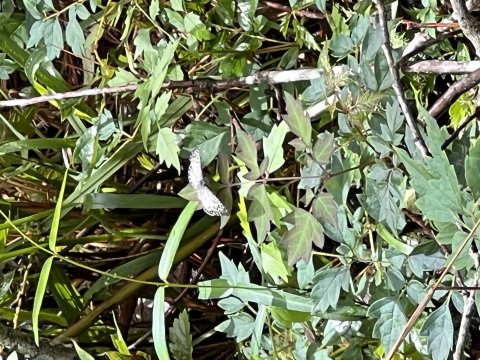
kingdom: Animalia
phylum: Arthropoda
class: Insecta
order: Lepidoptera
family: Hesperiidae
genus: Pyrgus
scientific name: Pyrgus oileus
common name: Tropical Checkered-Skipper
